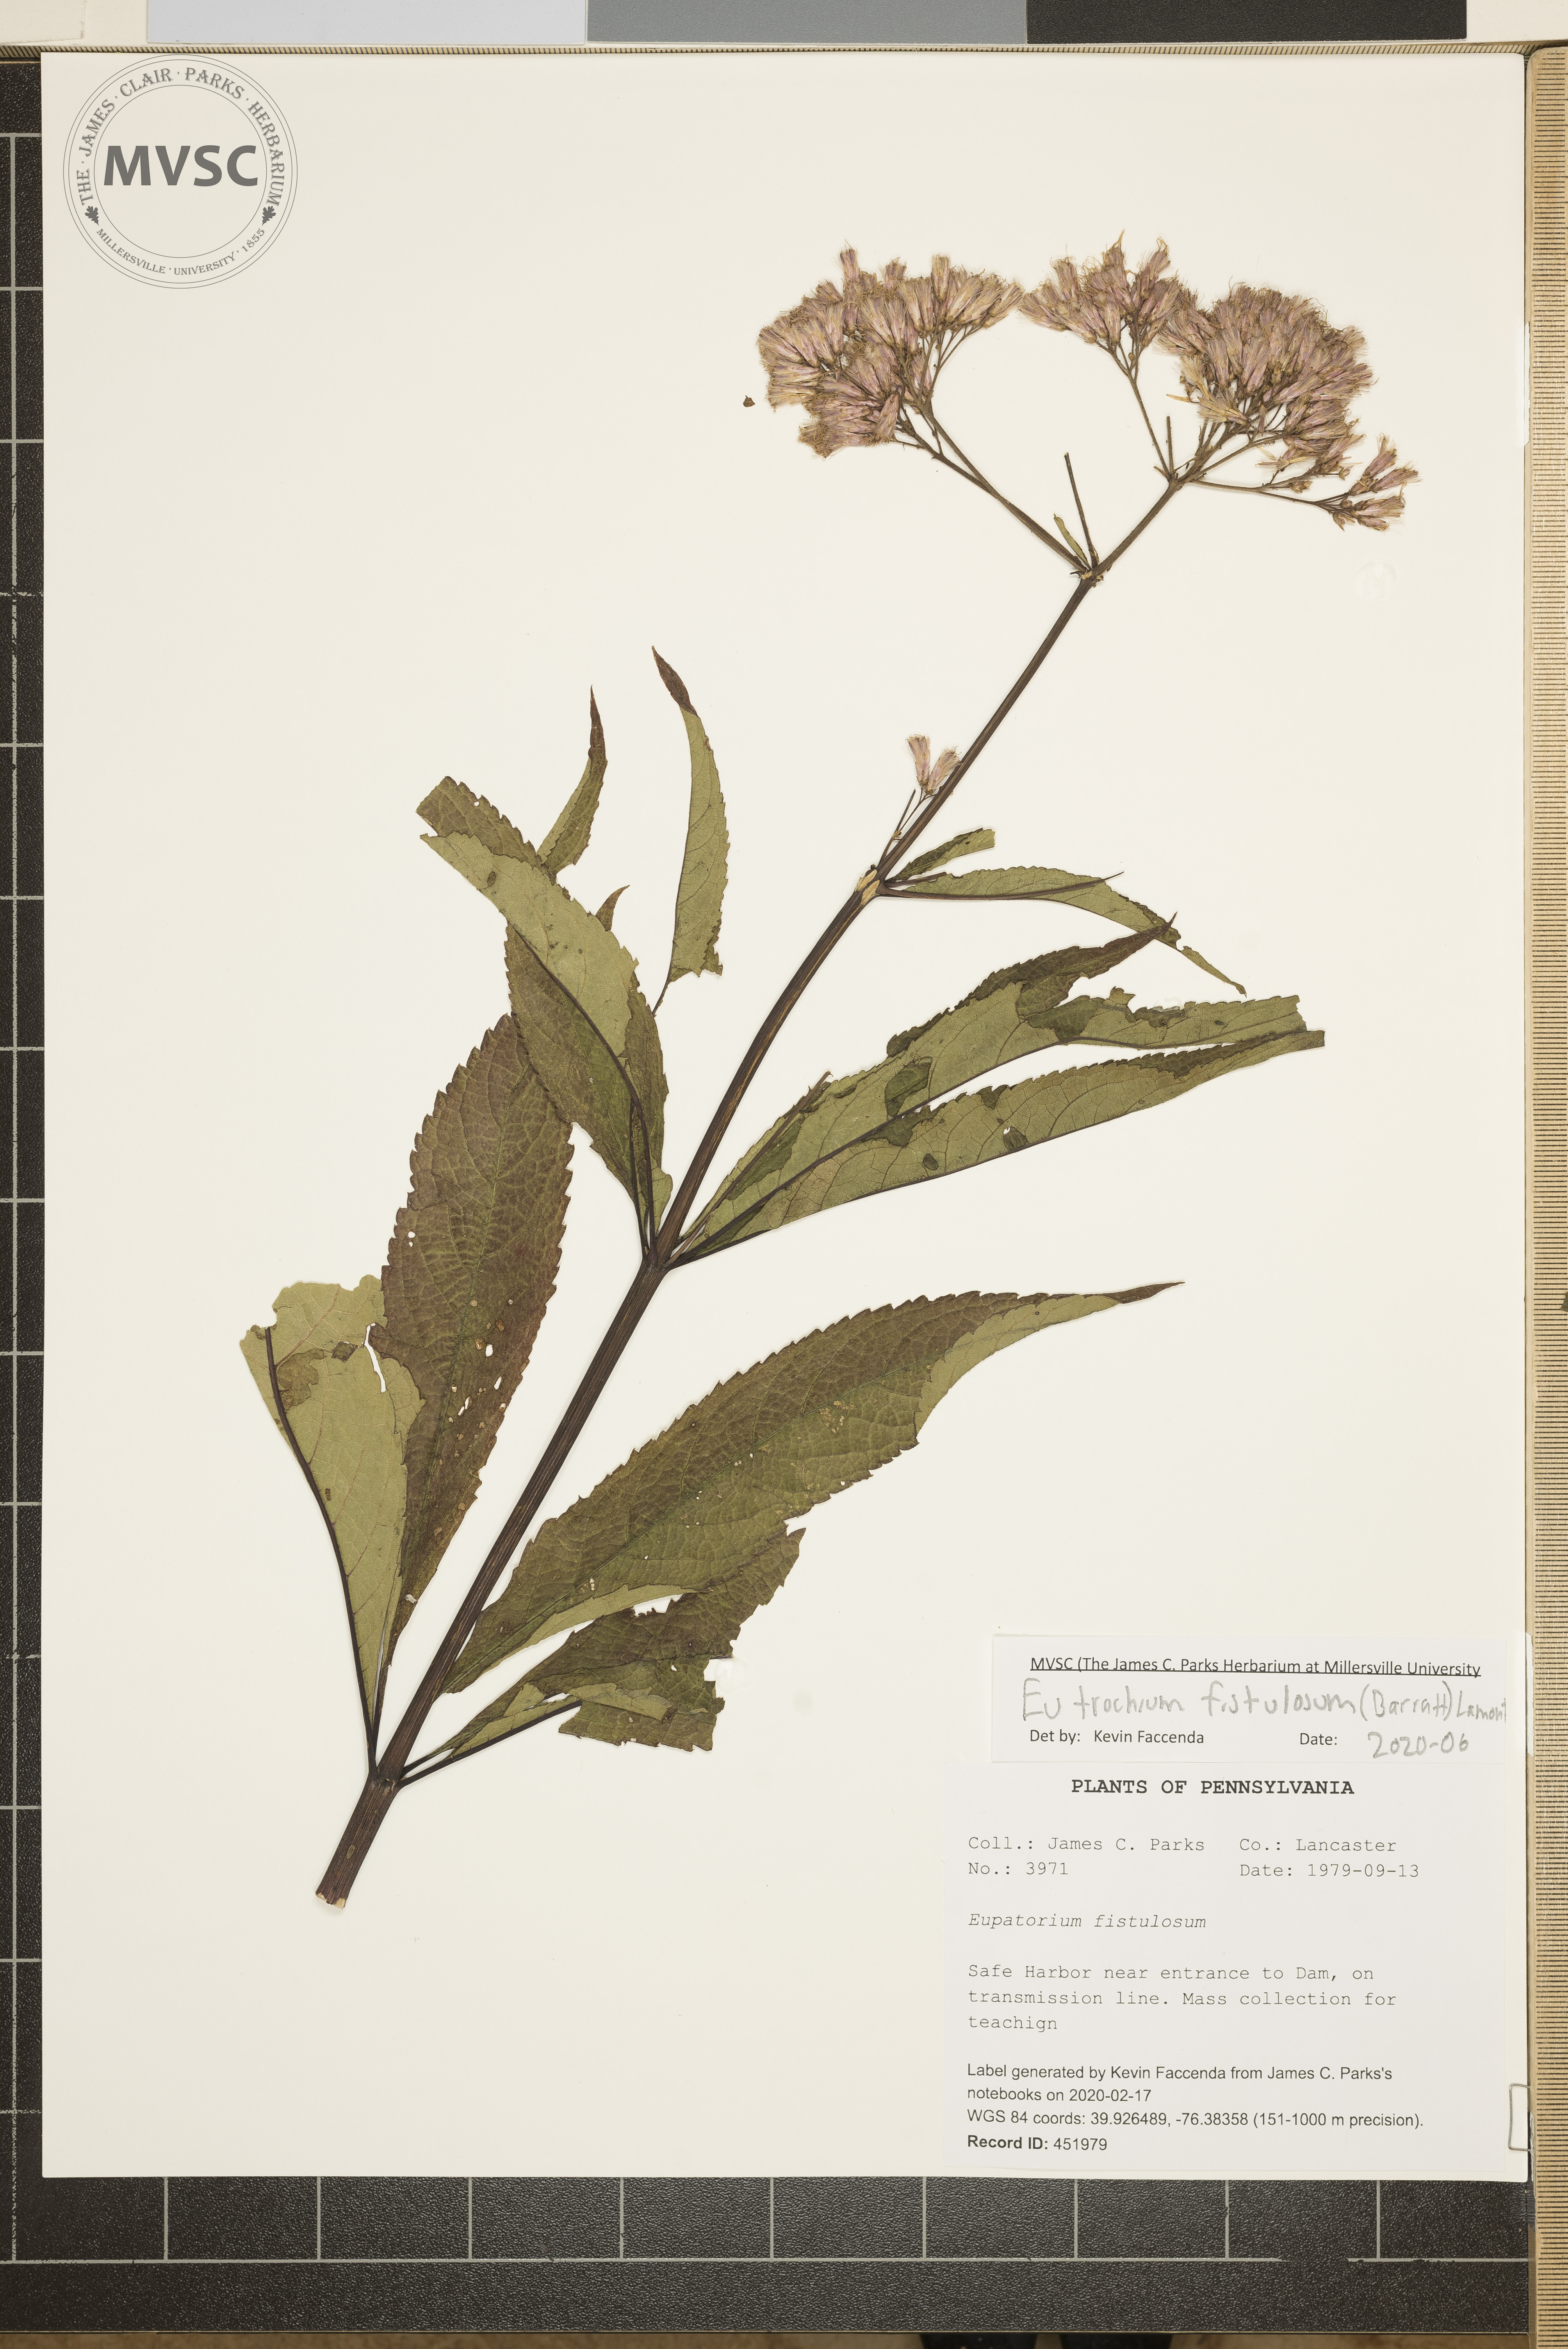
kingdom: Plantae
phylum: Tracheophyta
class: Magnoliopsida
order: Asterales
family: Asteraceae
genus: Eutrochium
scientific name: Eutrochium fistulosum
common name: Trumpetweed
